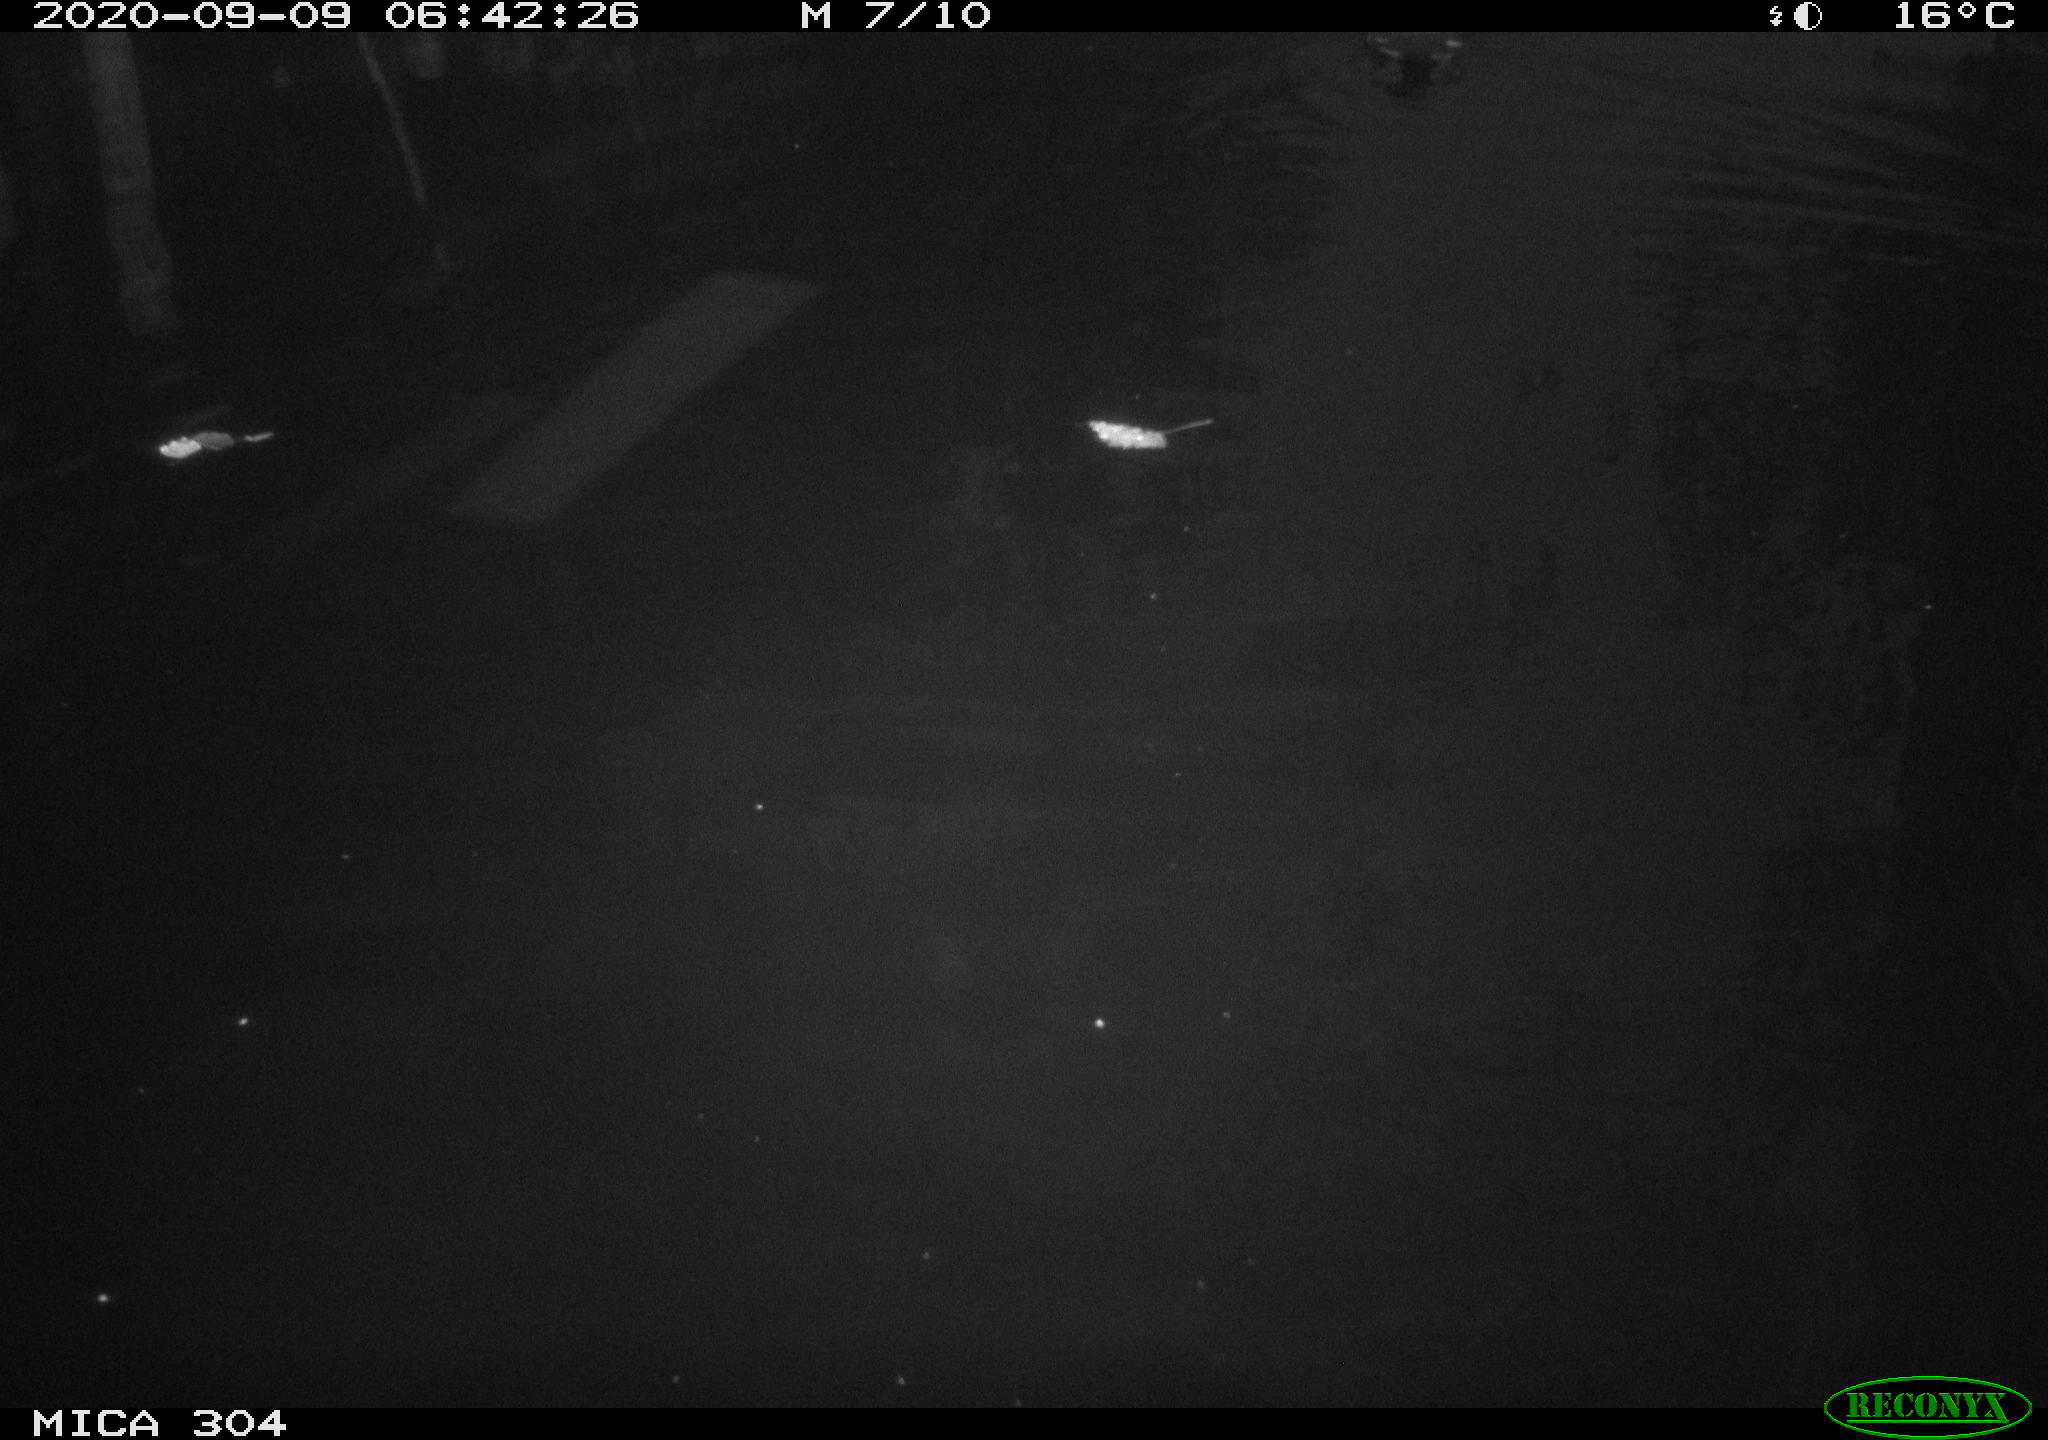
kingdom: Animalia
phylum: Chordata
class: Aves
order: Gruiformes
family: Rallidae
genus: Gallinula
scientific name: Gallinula chloropus
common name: Common moorhen
